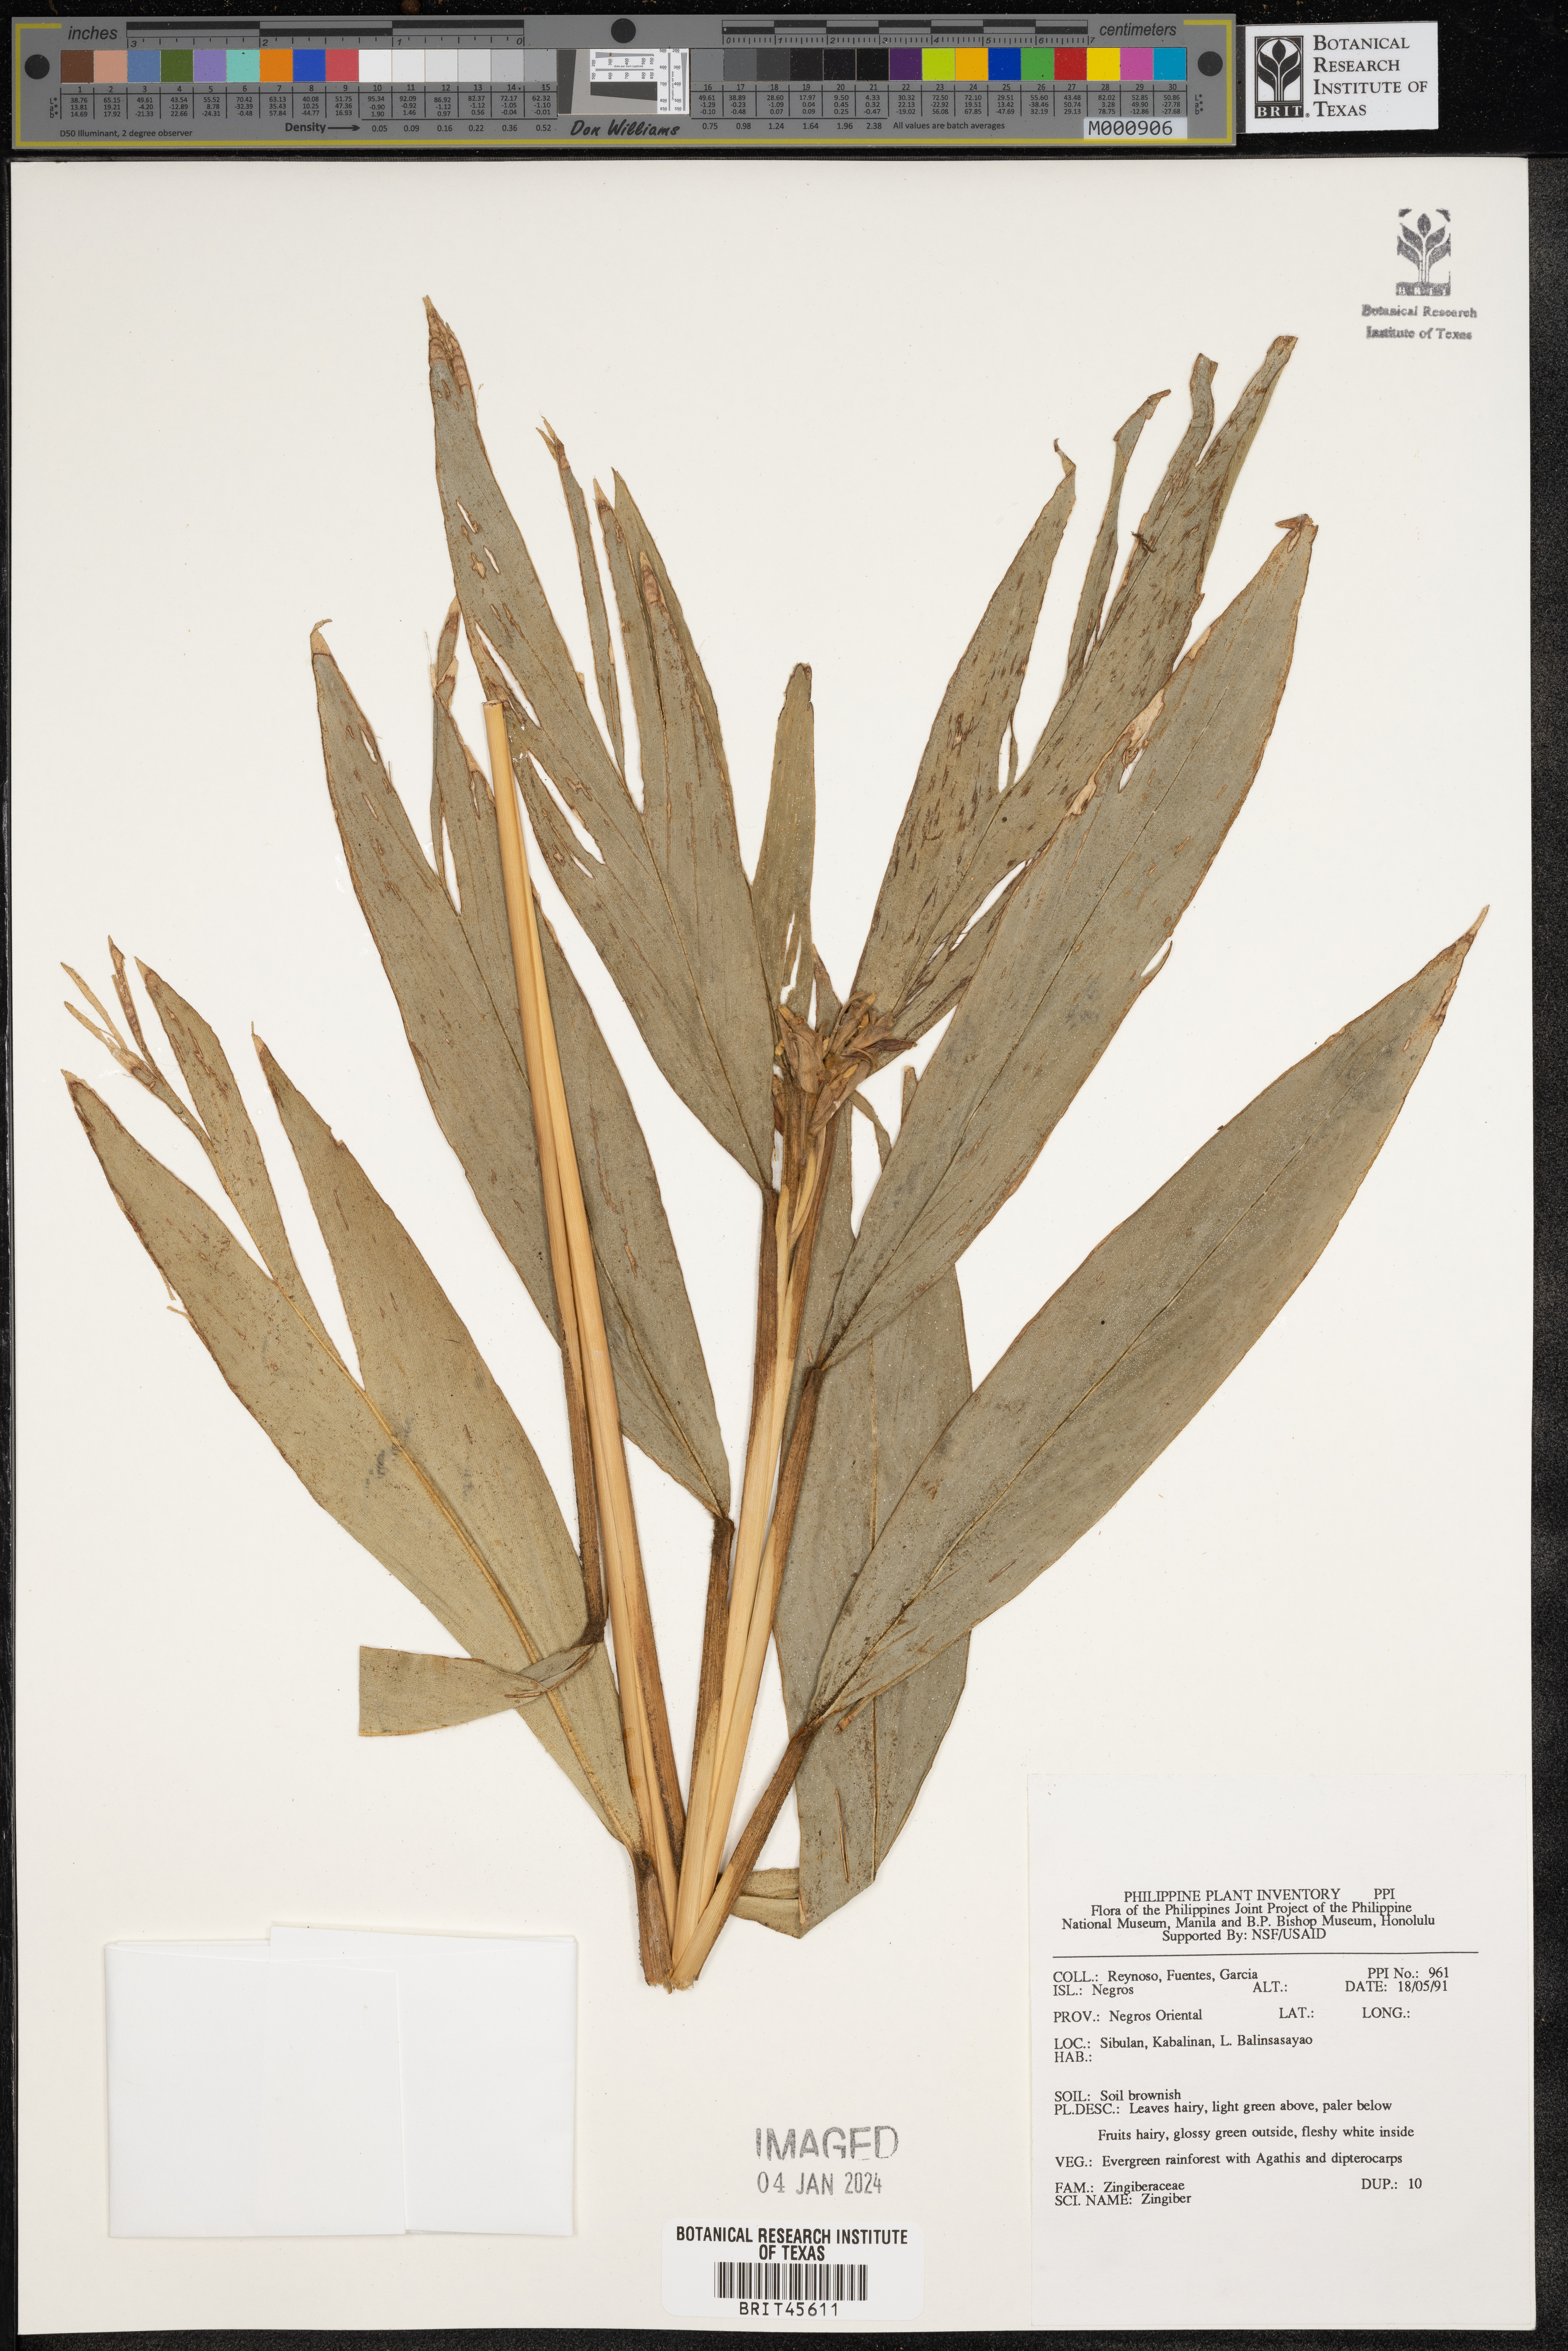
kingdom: Plantae
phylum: Tracheophyta
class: Liliopsida
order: Zingiberales
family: Zingiberaceae
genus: Zingiber
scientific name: Zingiber
